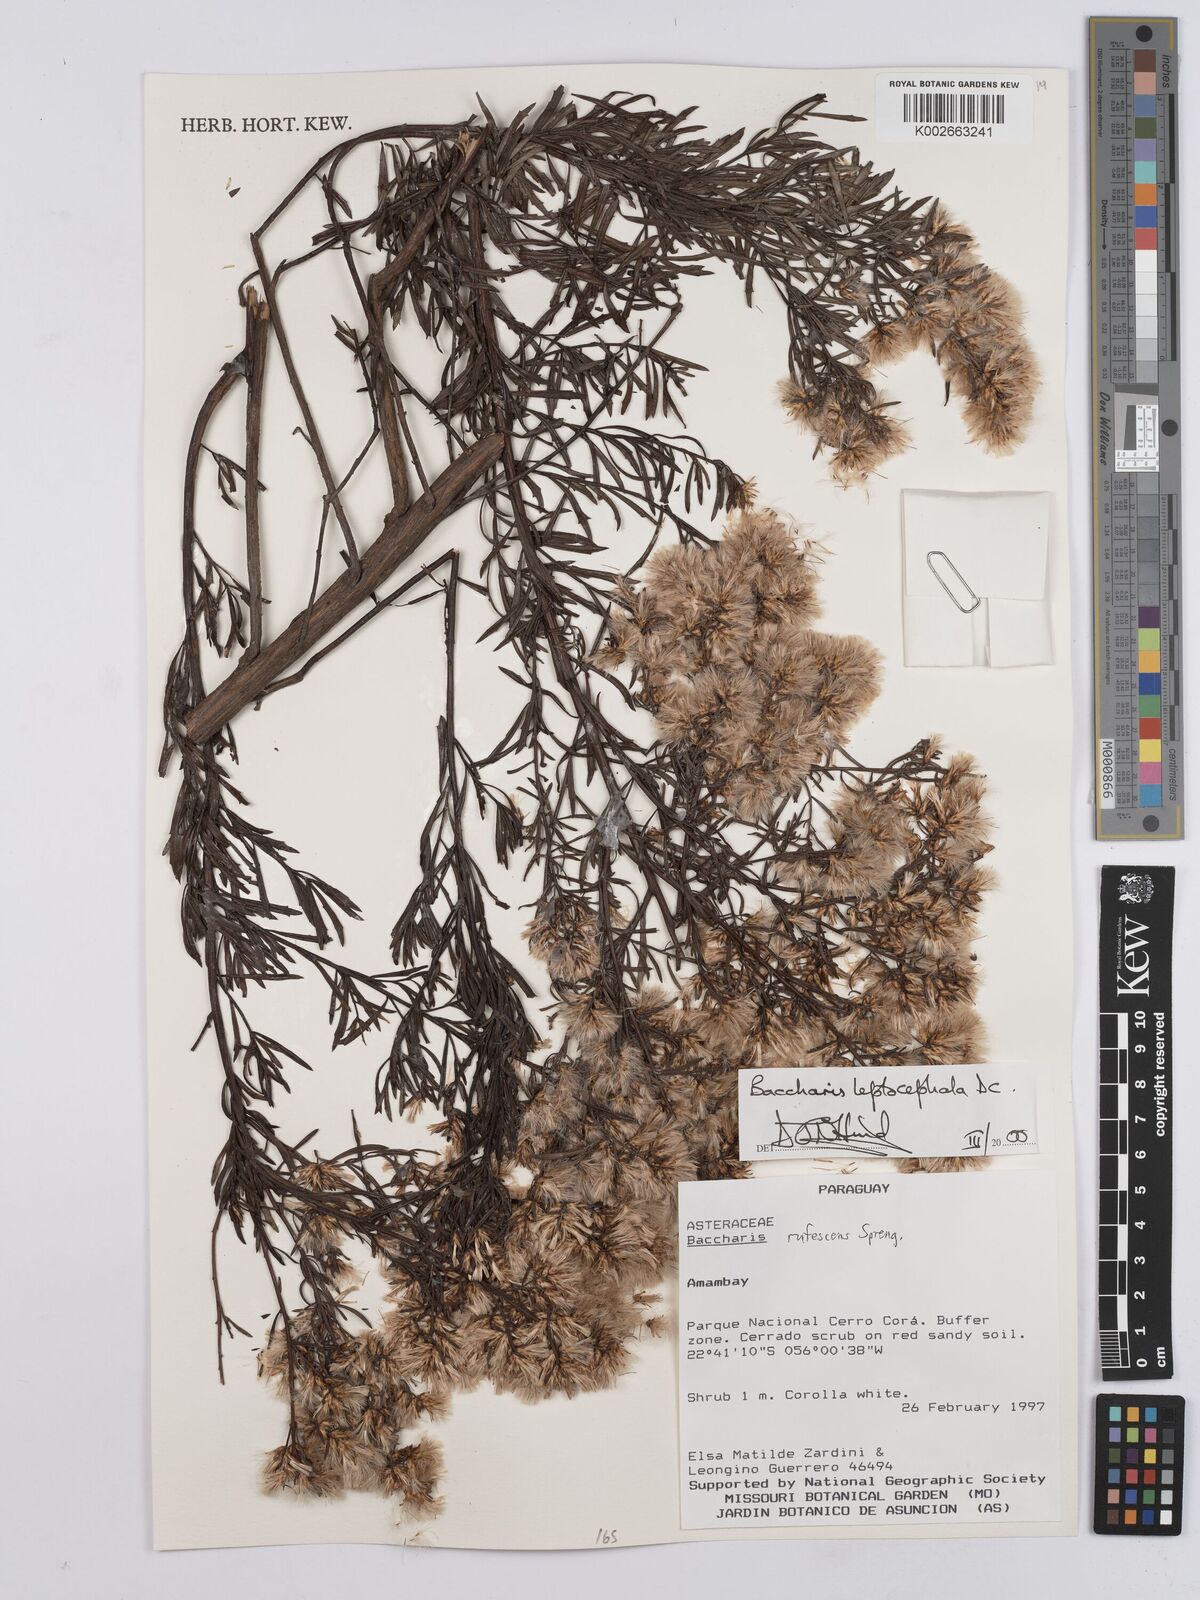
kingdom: Plantae
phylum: Tracheophyta
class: Magnoliopsida
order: Asterales
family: Asteraceae
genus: Baccharis
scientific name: Baccharis leptophylla
